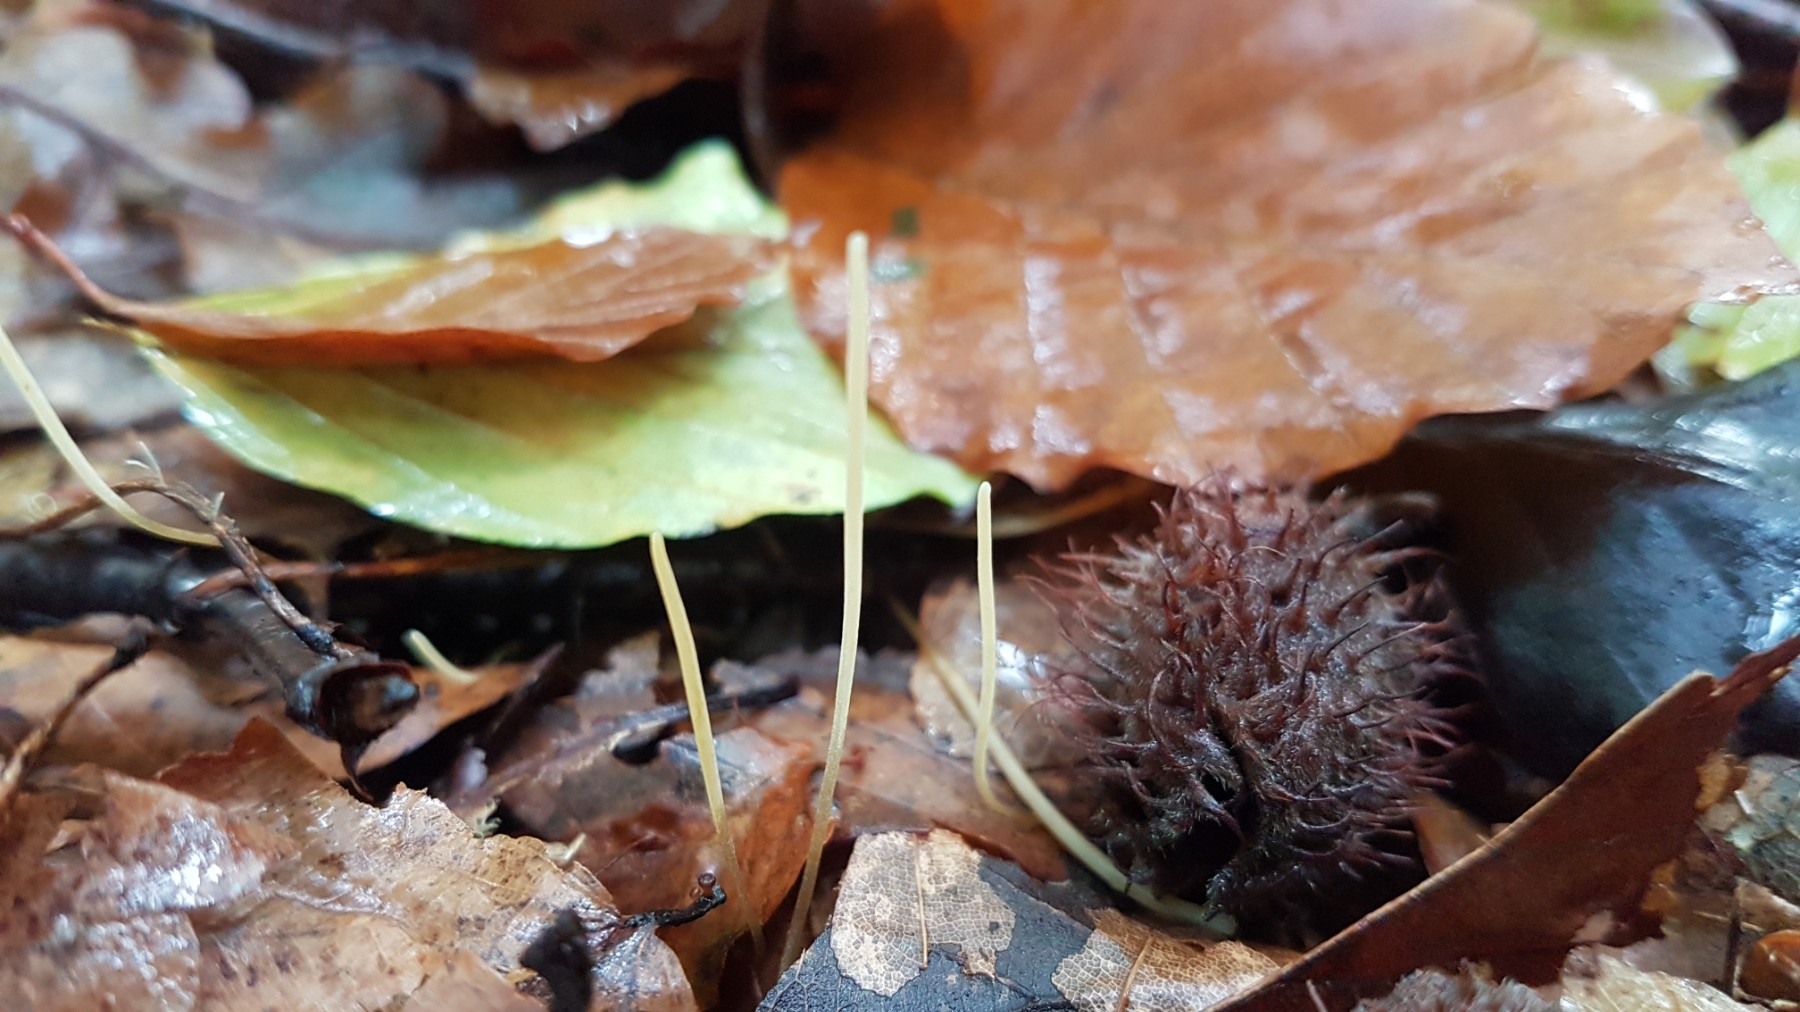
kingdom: Fungi
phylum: Basidiomycota
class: Agaricomycetes
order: Agaricales
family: Typhulaceae
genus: Typhula
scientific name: Typhula juncea
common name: trådagtig rørkølle
